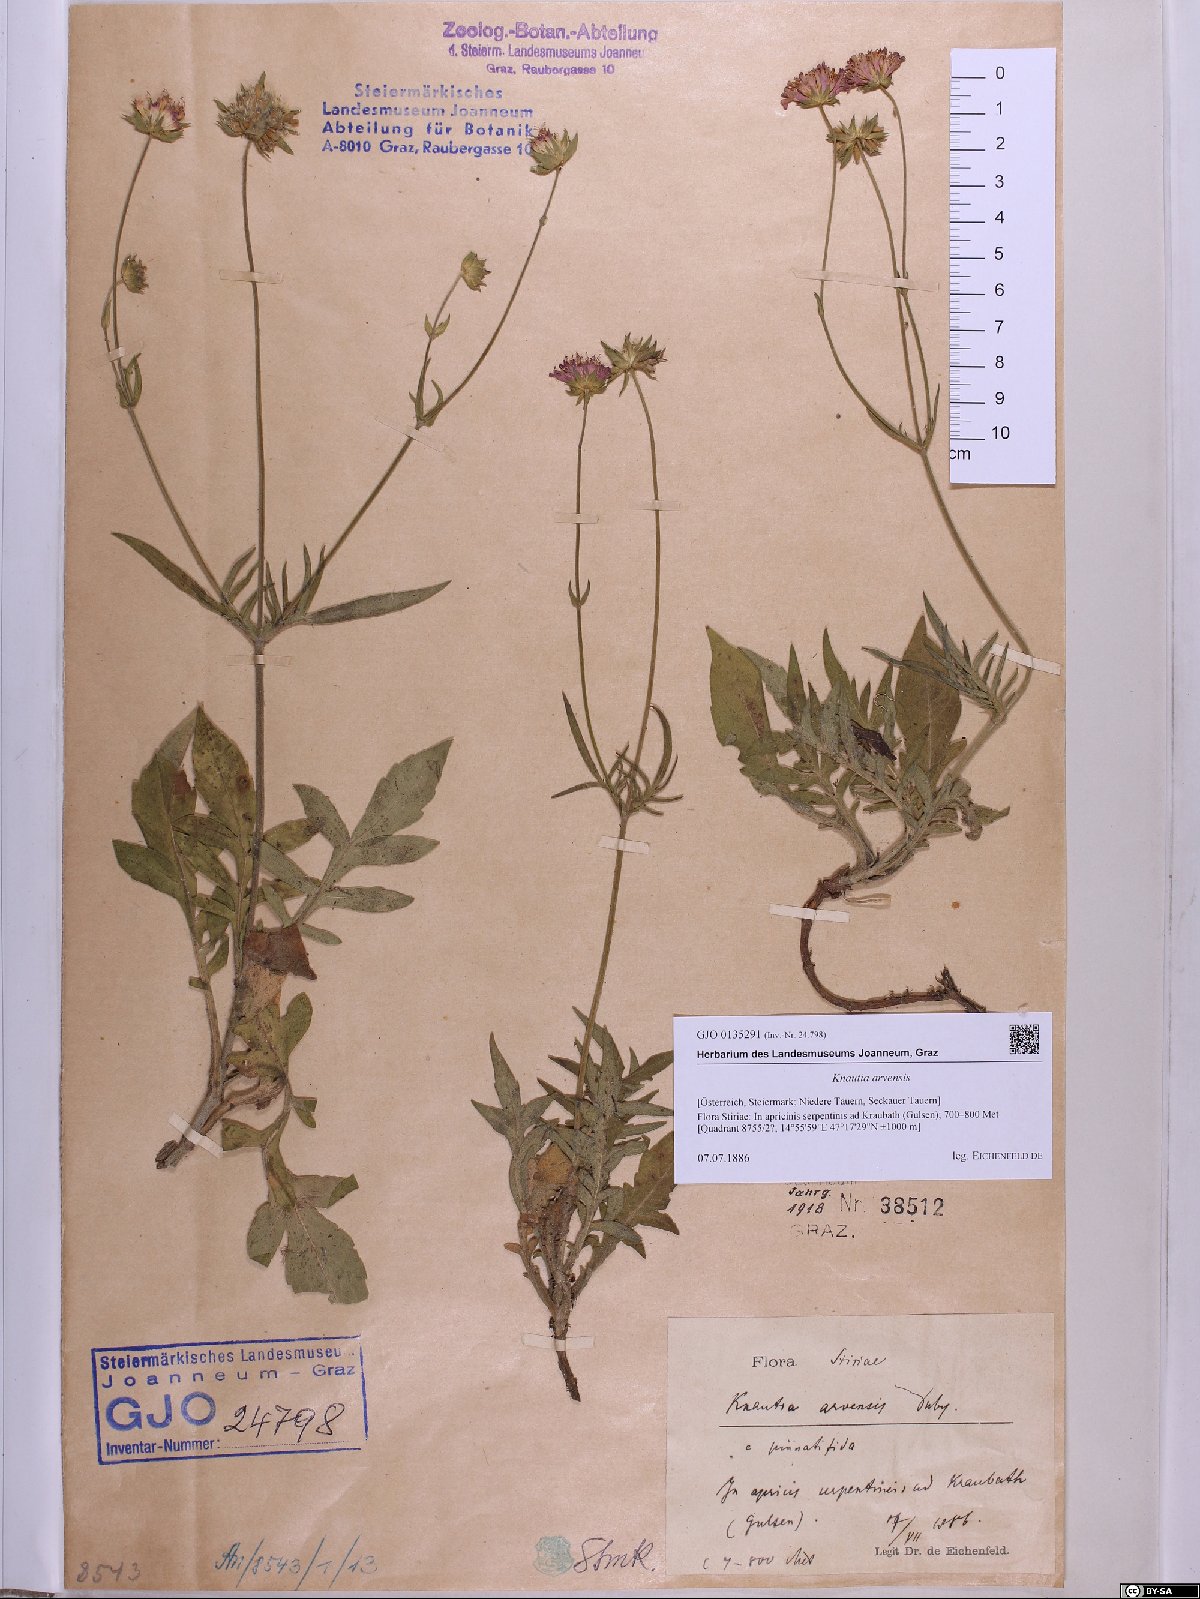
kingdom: Plantae
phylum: Tracheophyta
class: Magnoliopsida
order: Dipsacales
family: Caprifoliaceae
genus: Knautia
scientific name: Knautia arvensis
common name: Field scabiosa
